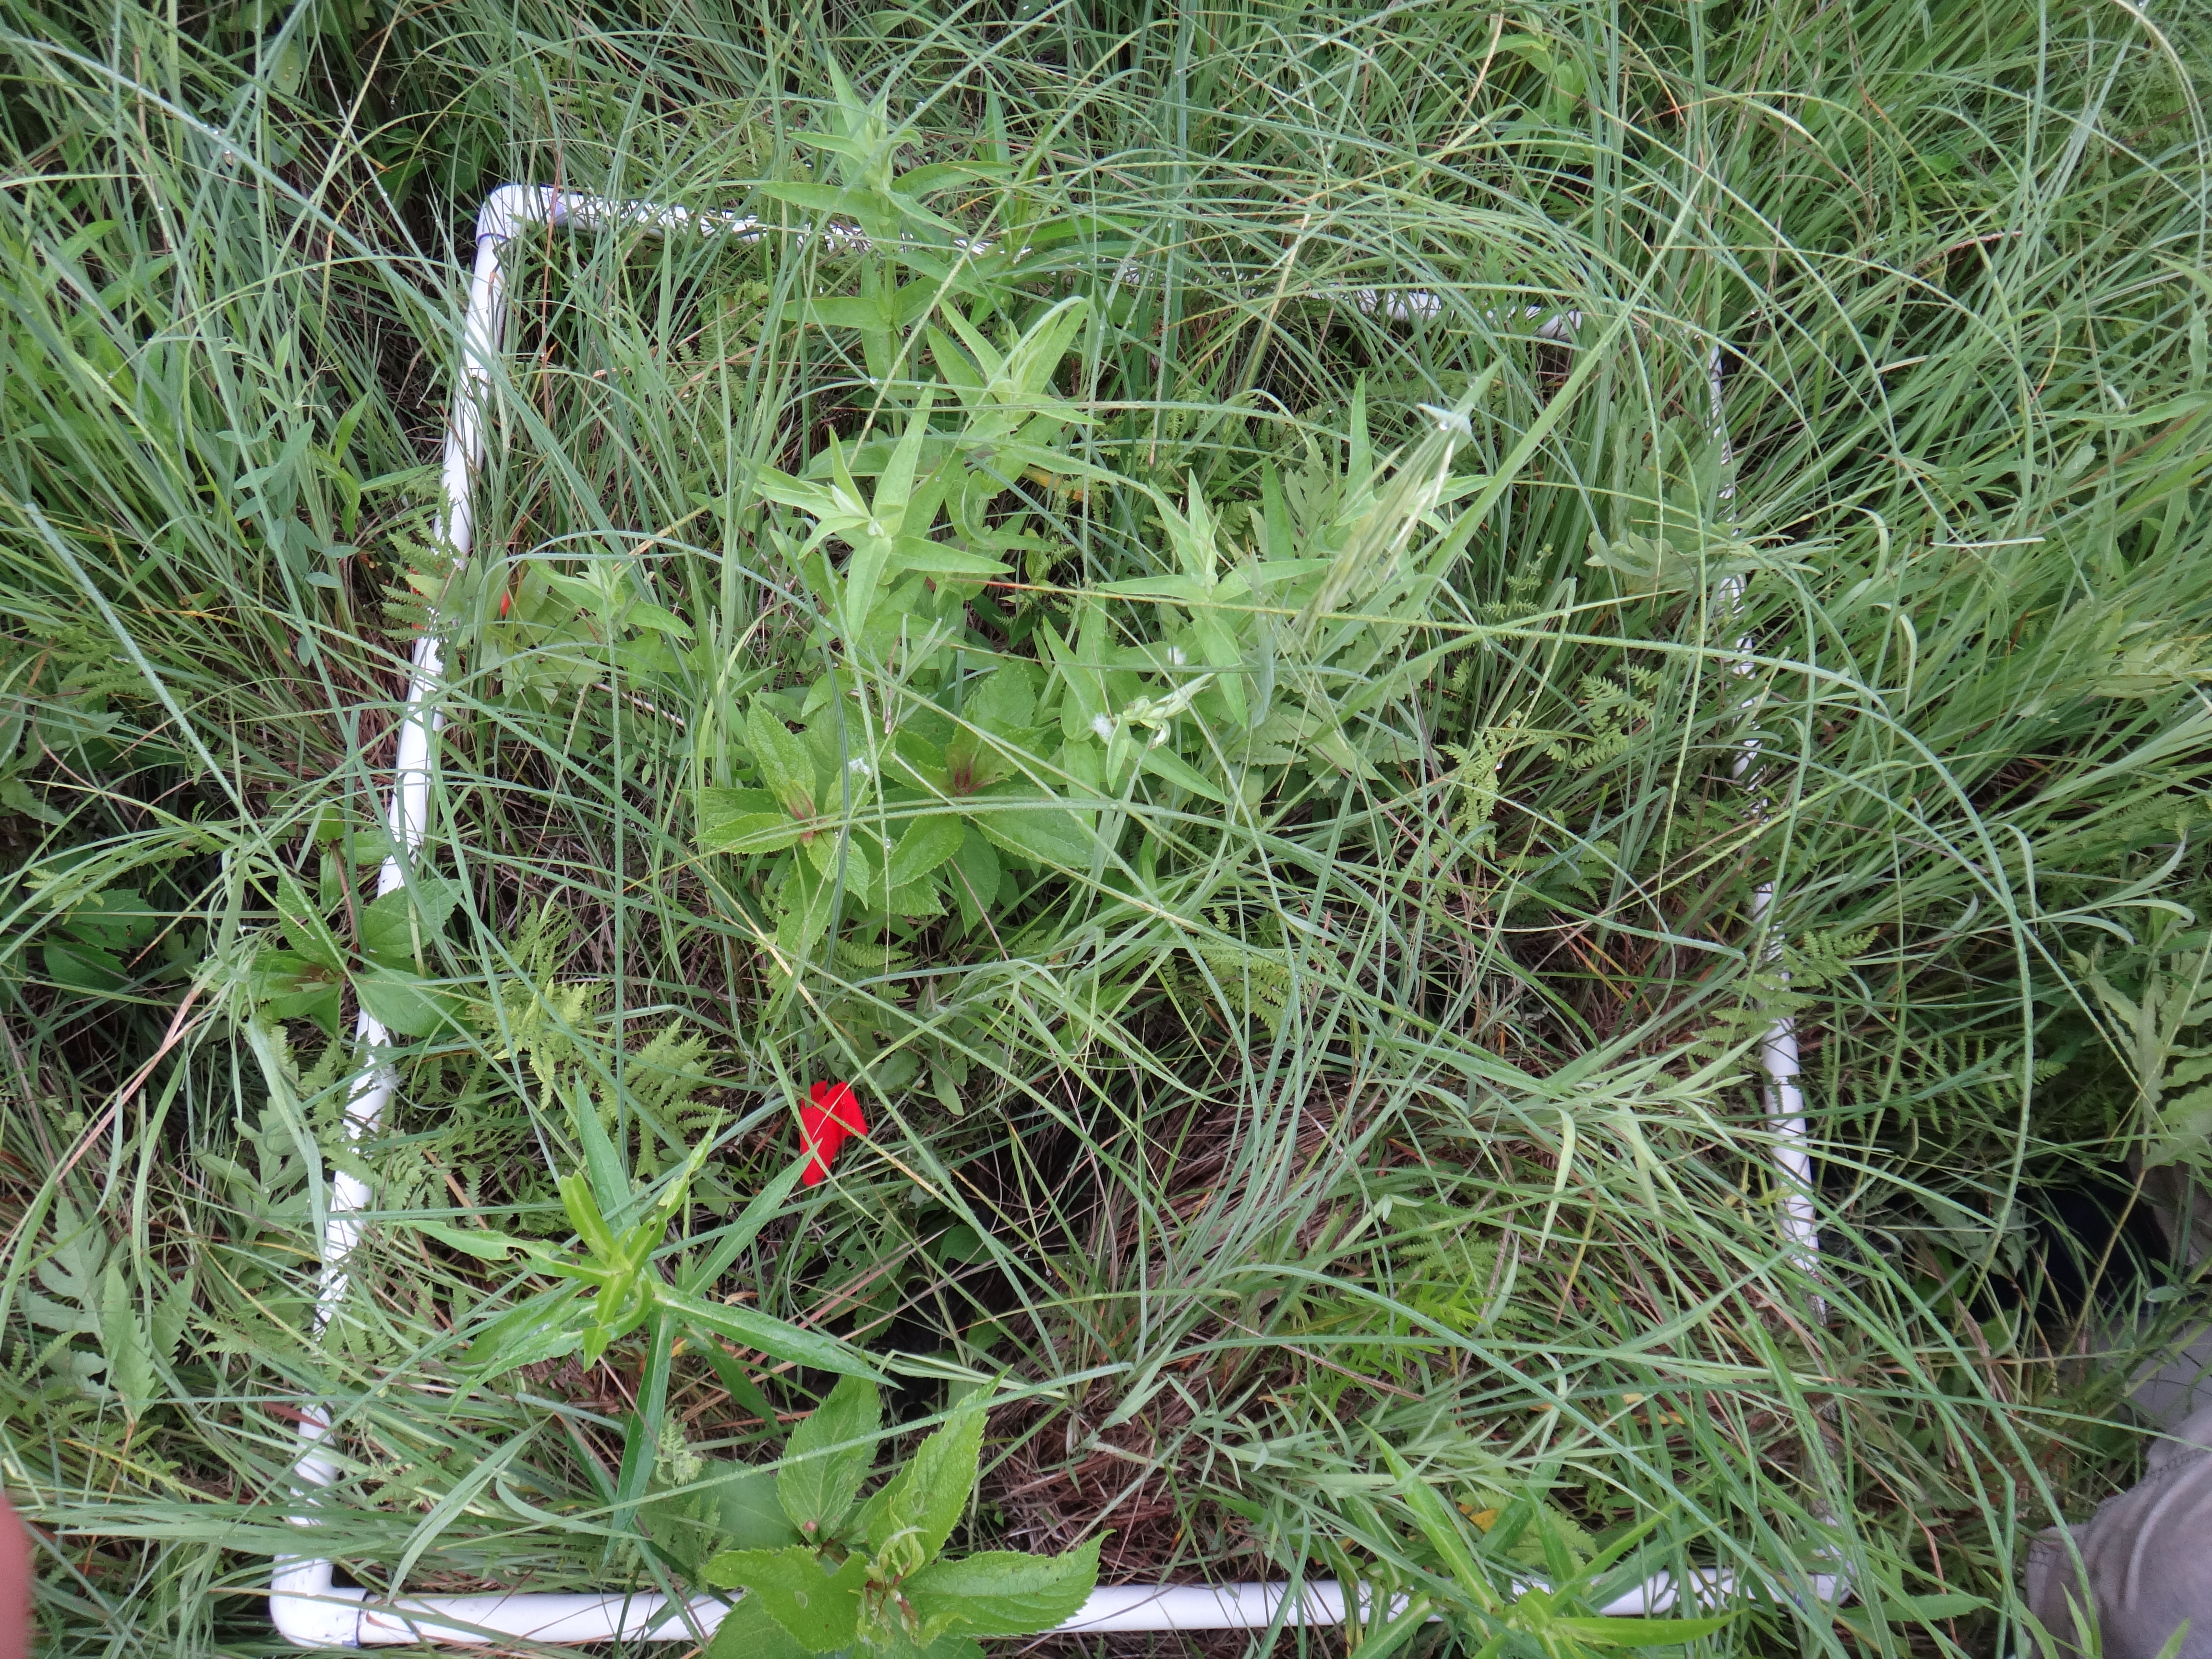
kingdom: Plantae
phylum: Tracheophyta
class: Magnoliopsida
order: Asterales
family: Asteraceae
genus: Symphyotrichum
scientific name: Symphyotrichum firmum
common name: Shining aster
